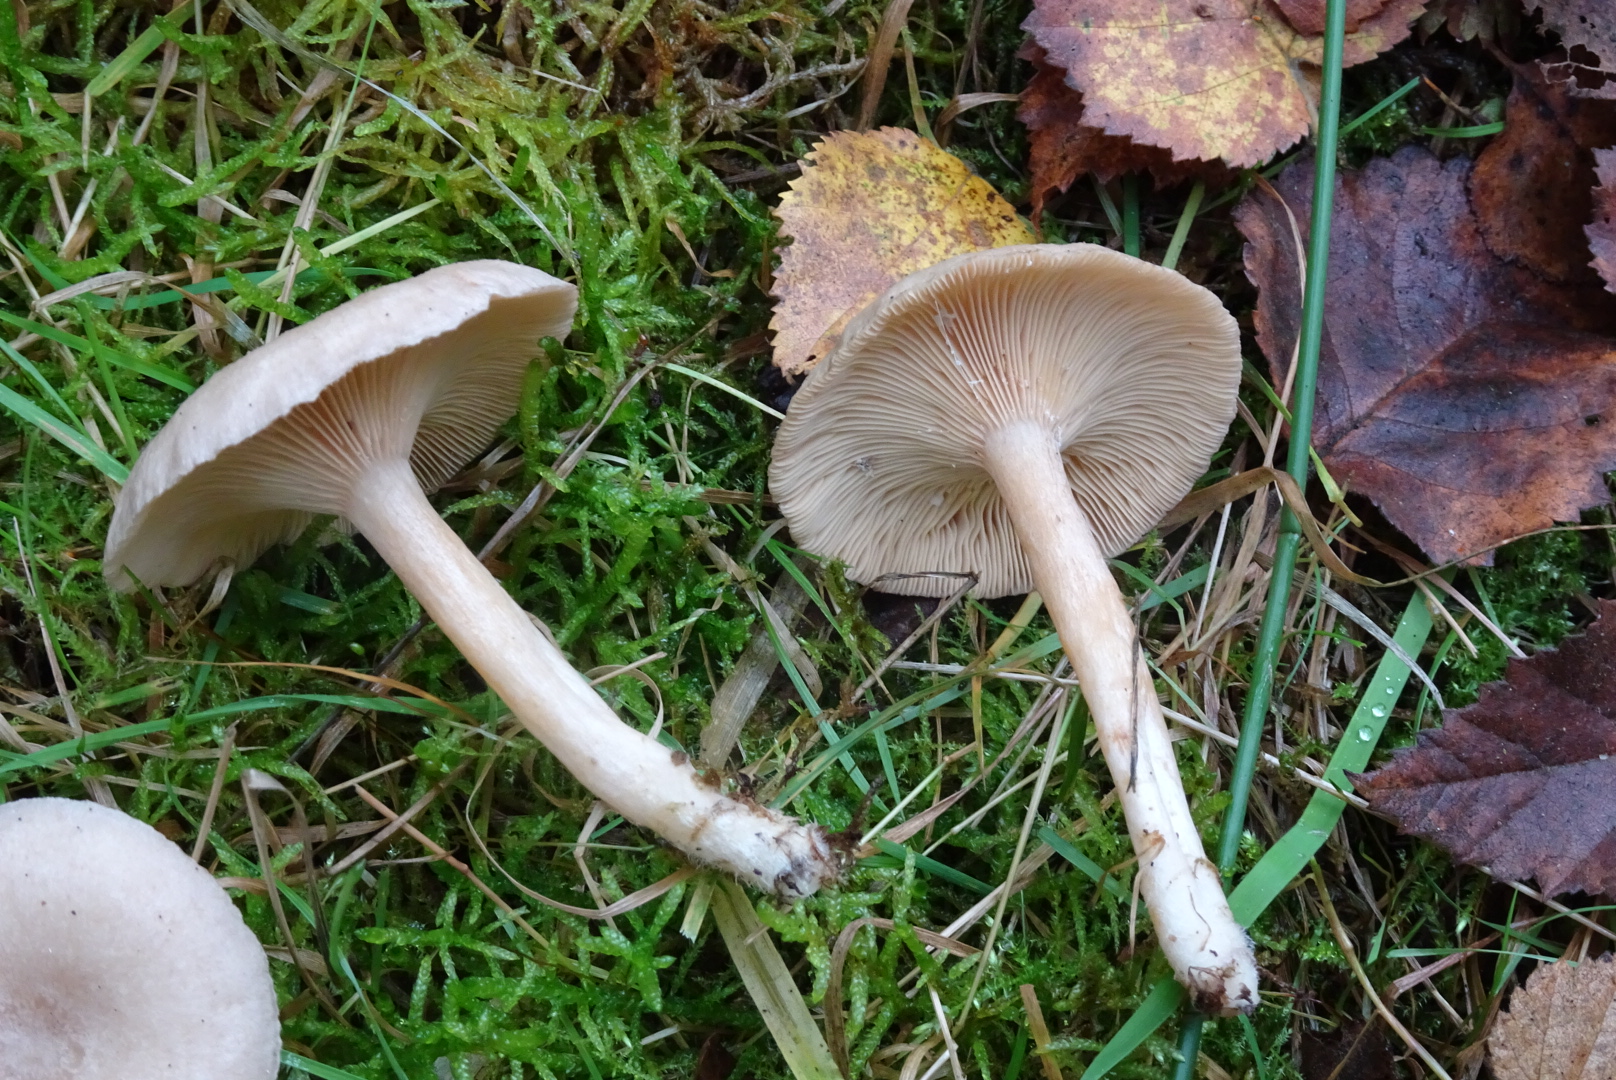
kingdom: Fungi
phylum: Basidiomycota
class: Agaricomycetes
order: Russulales
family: Russulaceae
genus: Lactarius
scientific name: Lactarius glyciosmus
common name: kokos-mælkehat
